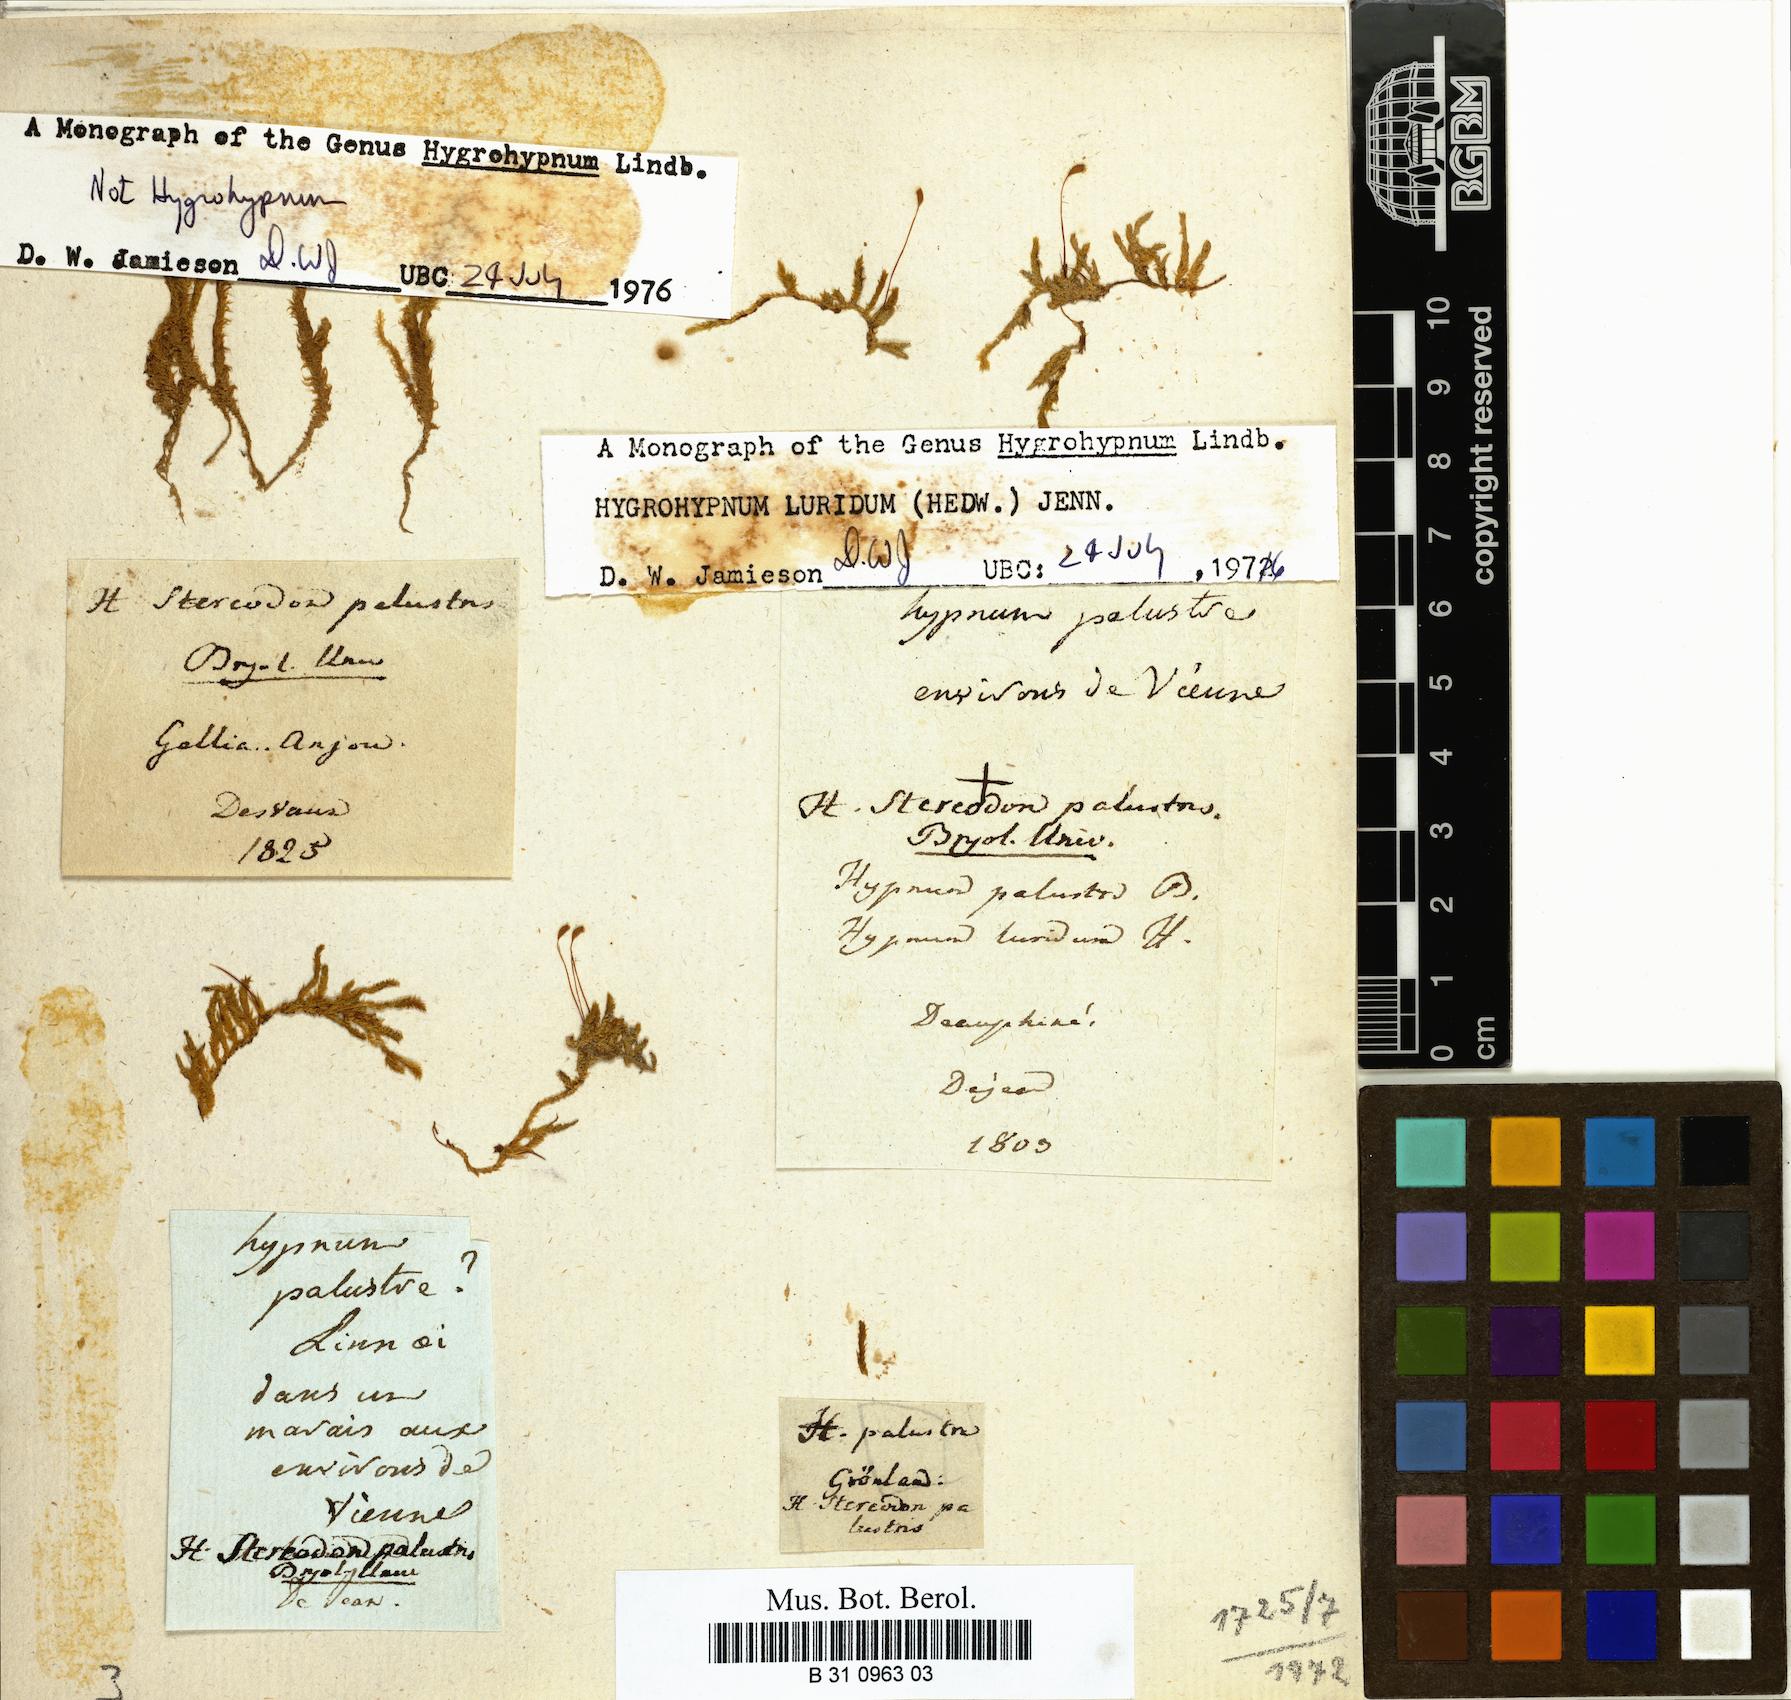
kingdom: Plantae
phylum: Bryophyta
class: Bryopsida
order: Hypnales
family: Amblystegiaceae
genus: Hygrohypnum
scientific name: Hygrohypnum luridum
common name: Drab brook moss
